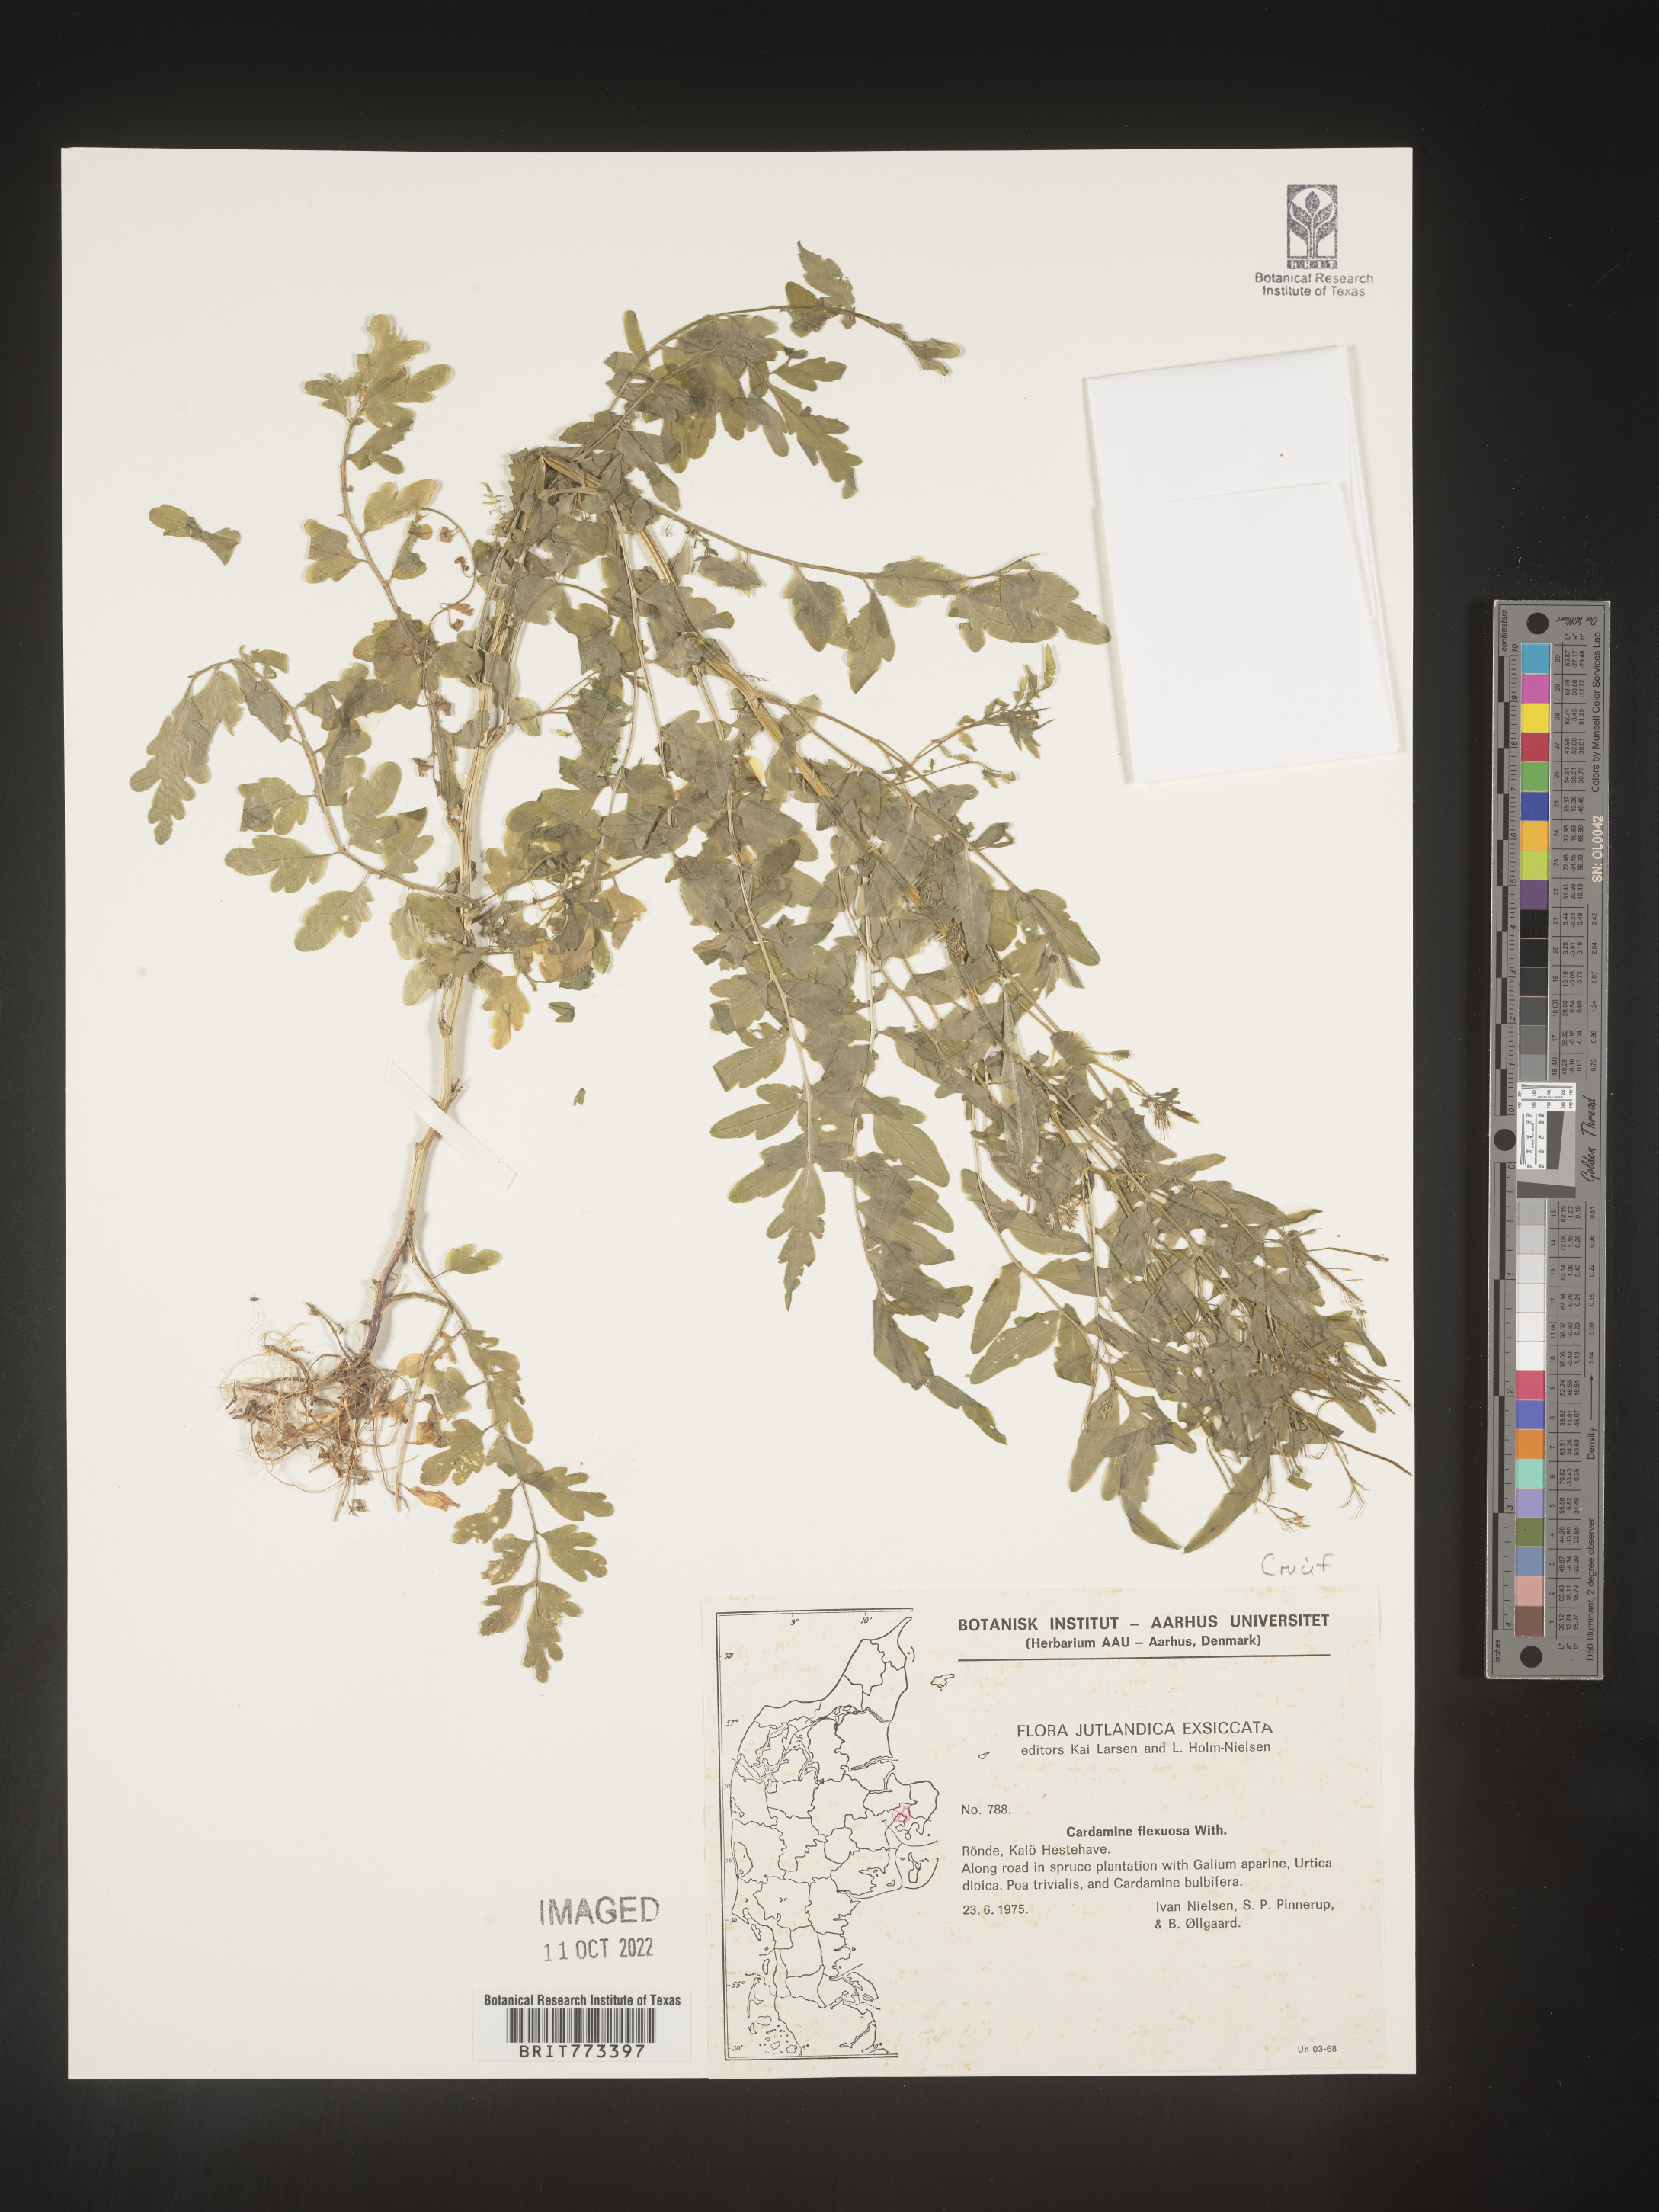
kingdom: Plantae
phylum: Tracheophyta
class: Magnoliopsida
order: Brassicales
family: Brassicaceae
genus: Cardamine
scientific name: Cardamine
